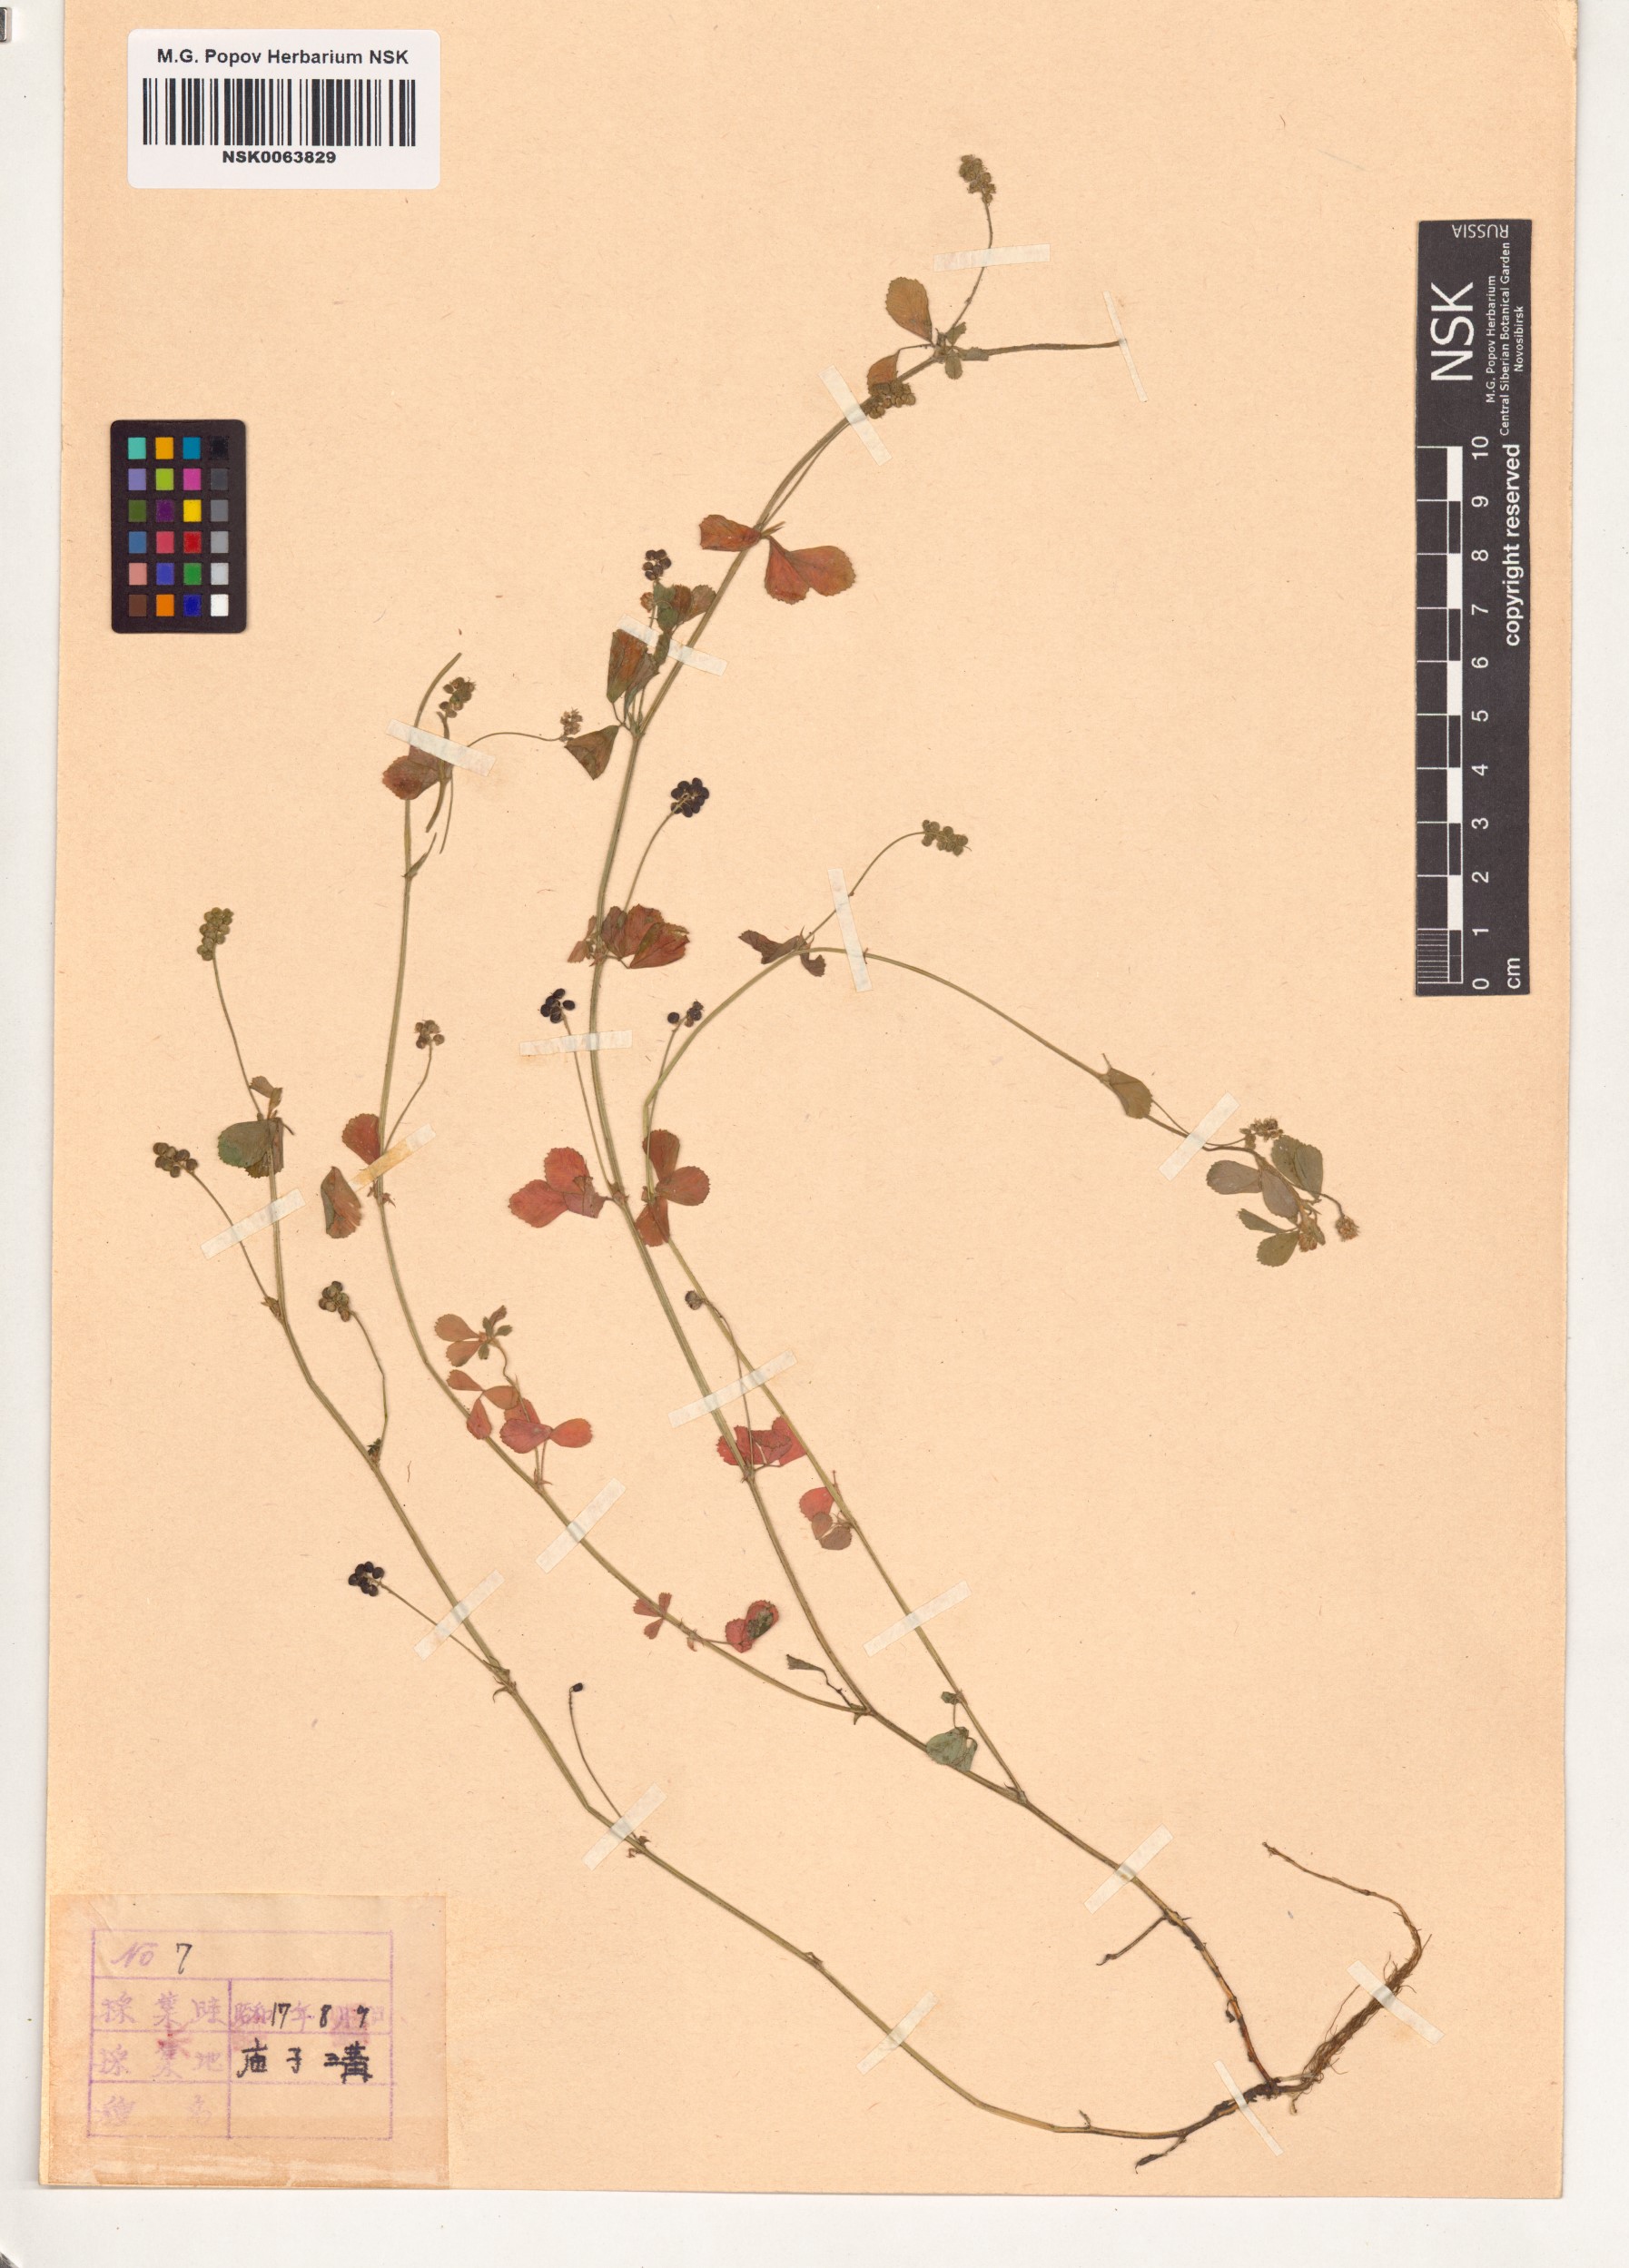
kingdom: Plantae
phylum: Tracheophyta
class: Magnoliopsida
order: Fabales
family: Fabaceae
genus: Medicago
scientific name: Medicago
